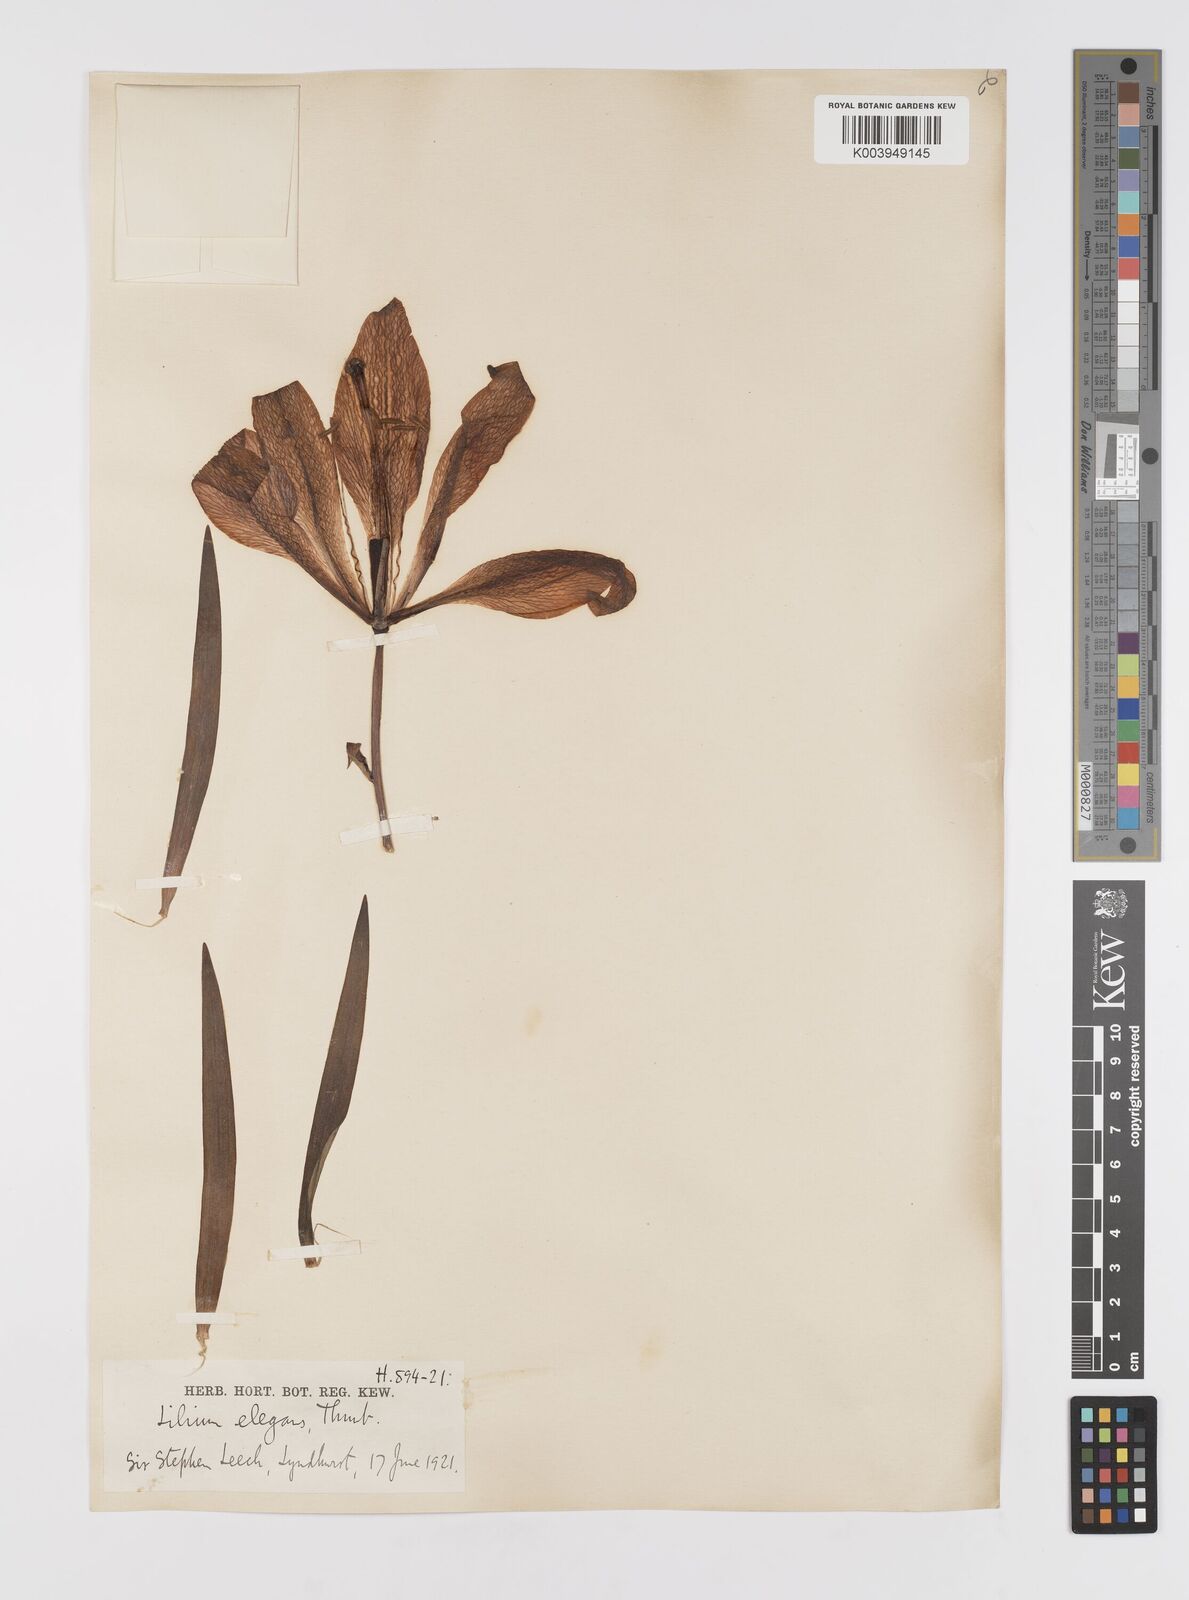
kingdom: Plantae
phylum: Tracheophyta
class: Liliopsida
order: Liliales
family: Liliaceae
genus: Lilium
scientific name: Lilium pensylvanicum
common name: Candlestick lily
